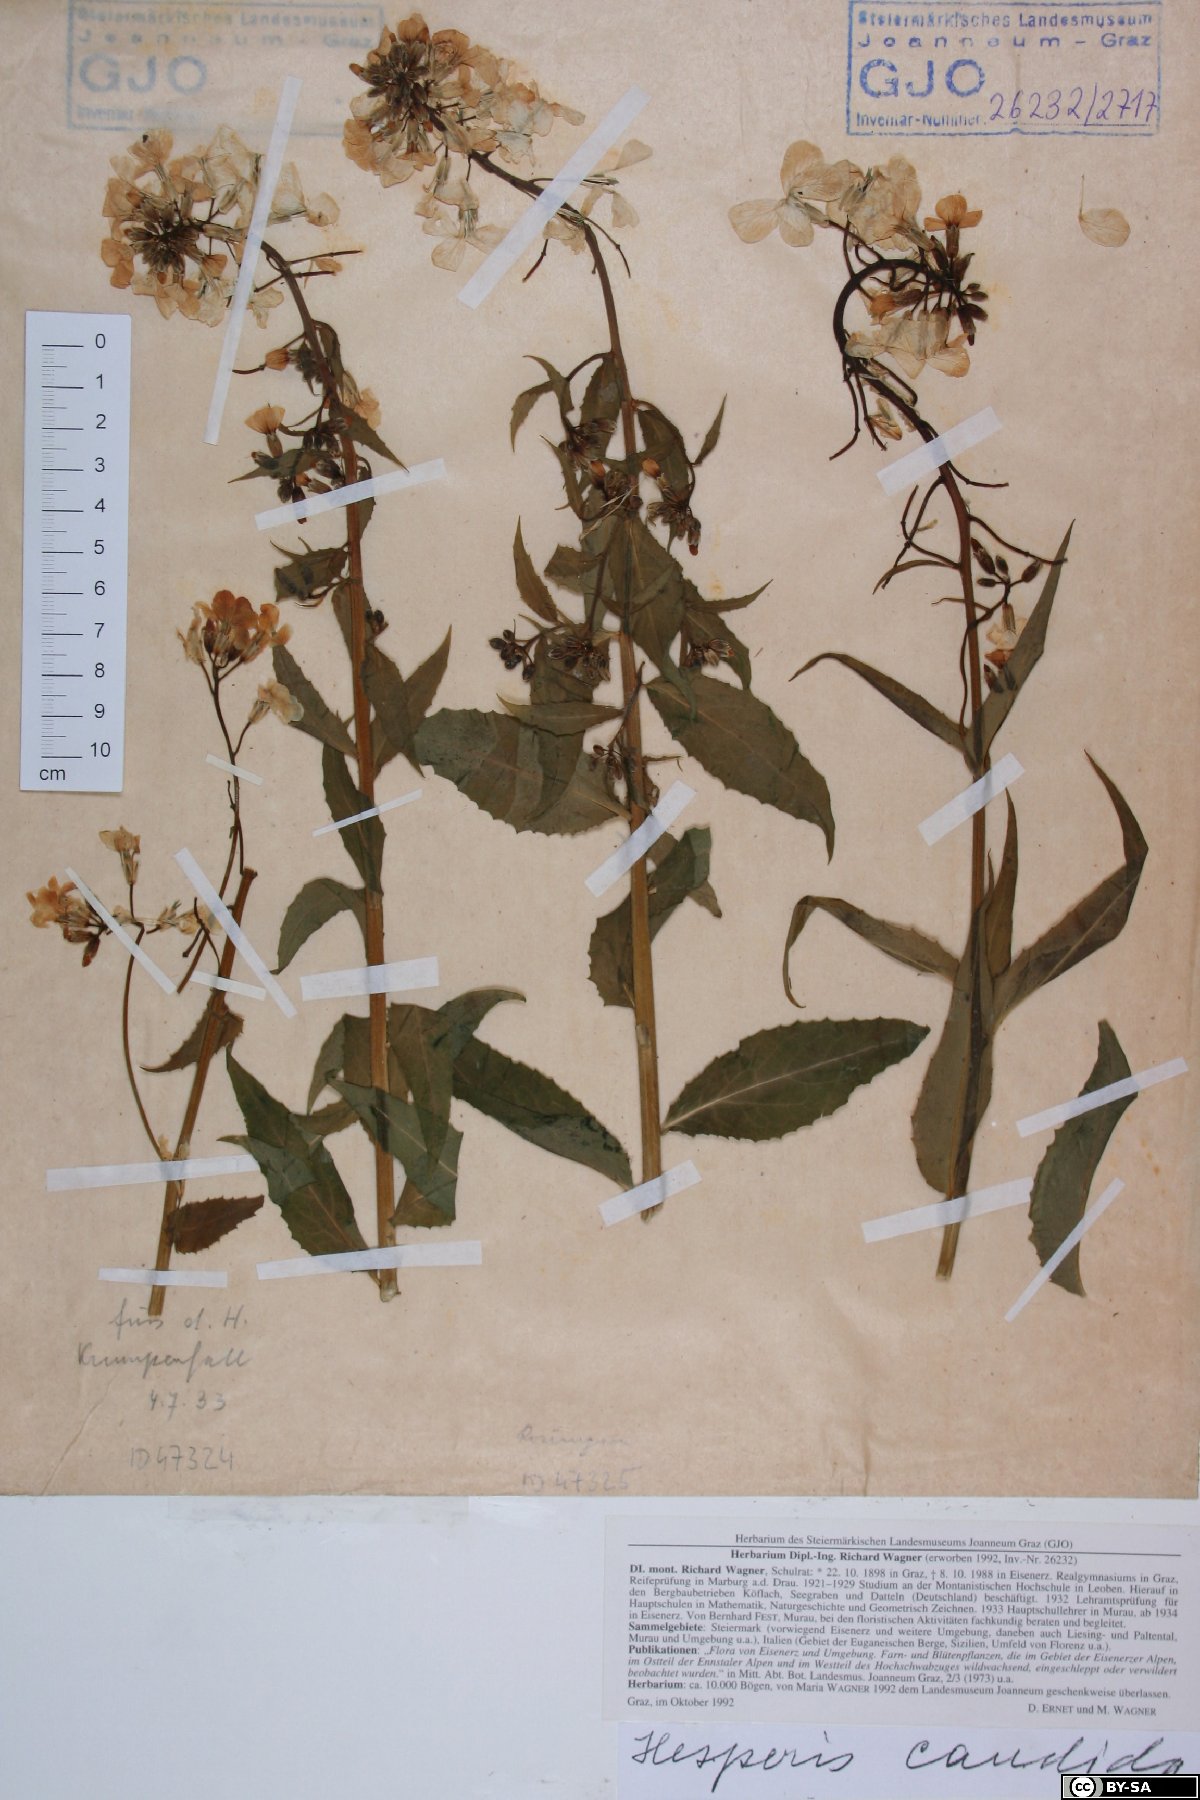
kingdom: Plantae
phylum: Tracheophyta
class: Magnoliopsida
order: Brassicales
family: Brassicaceae
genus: Hesperis
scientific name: Hesperis matronalis
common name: Dame's-violet
